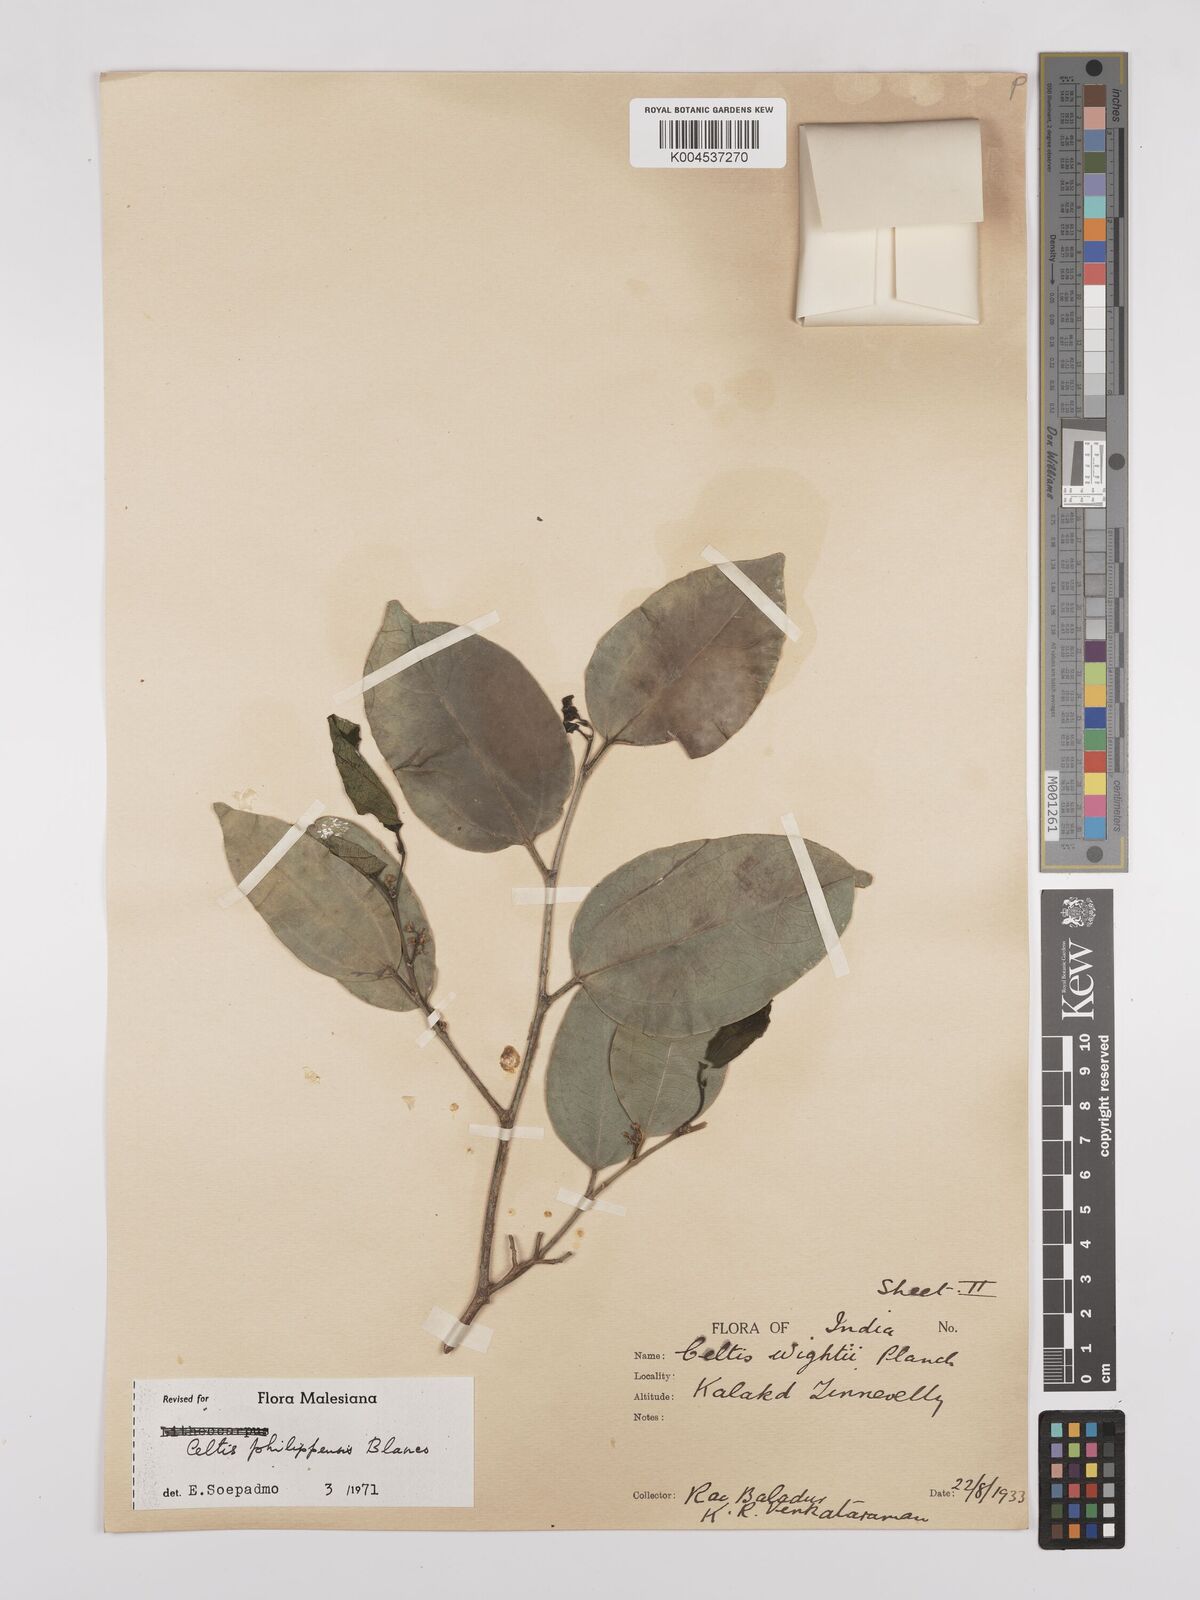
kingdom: Plantae
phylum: Tracheophyta
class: Magnoliopsida
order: Rosales
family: Cannabaceae
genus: Celtis
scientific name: Celtis philippensis
